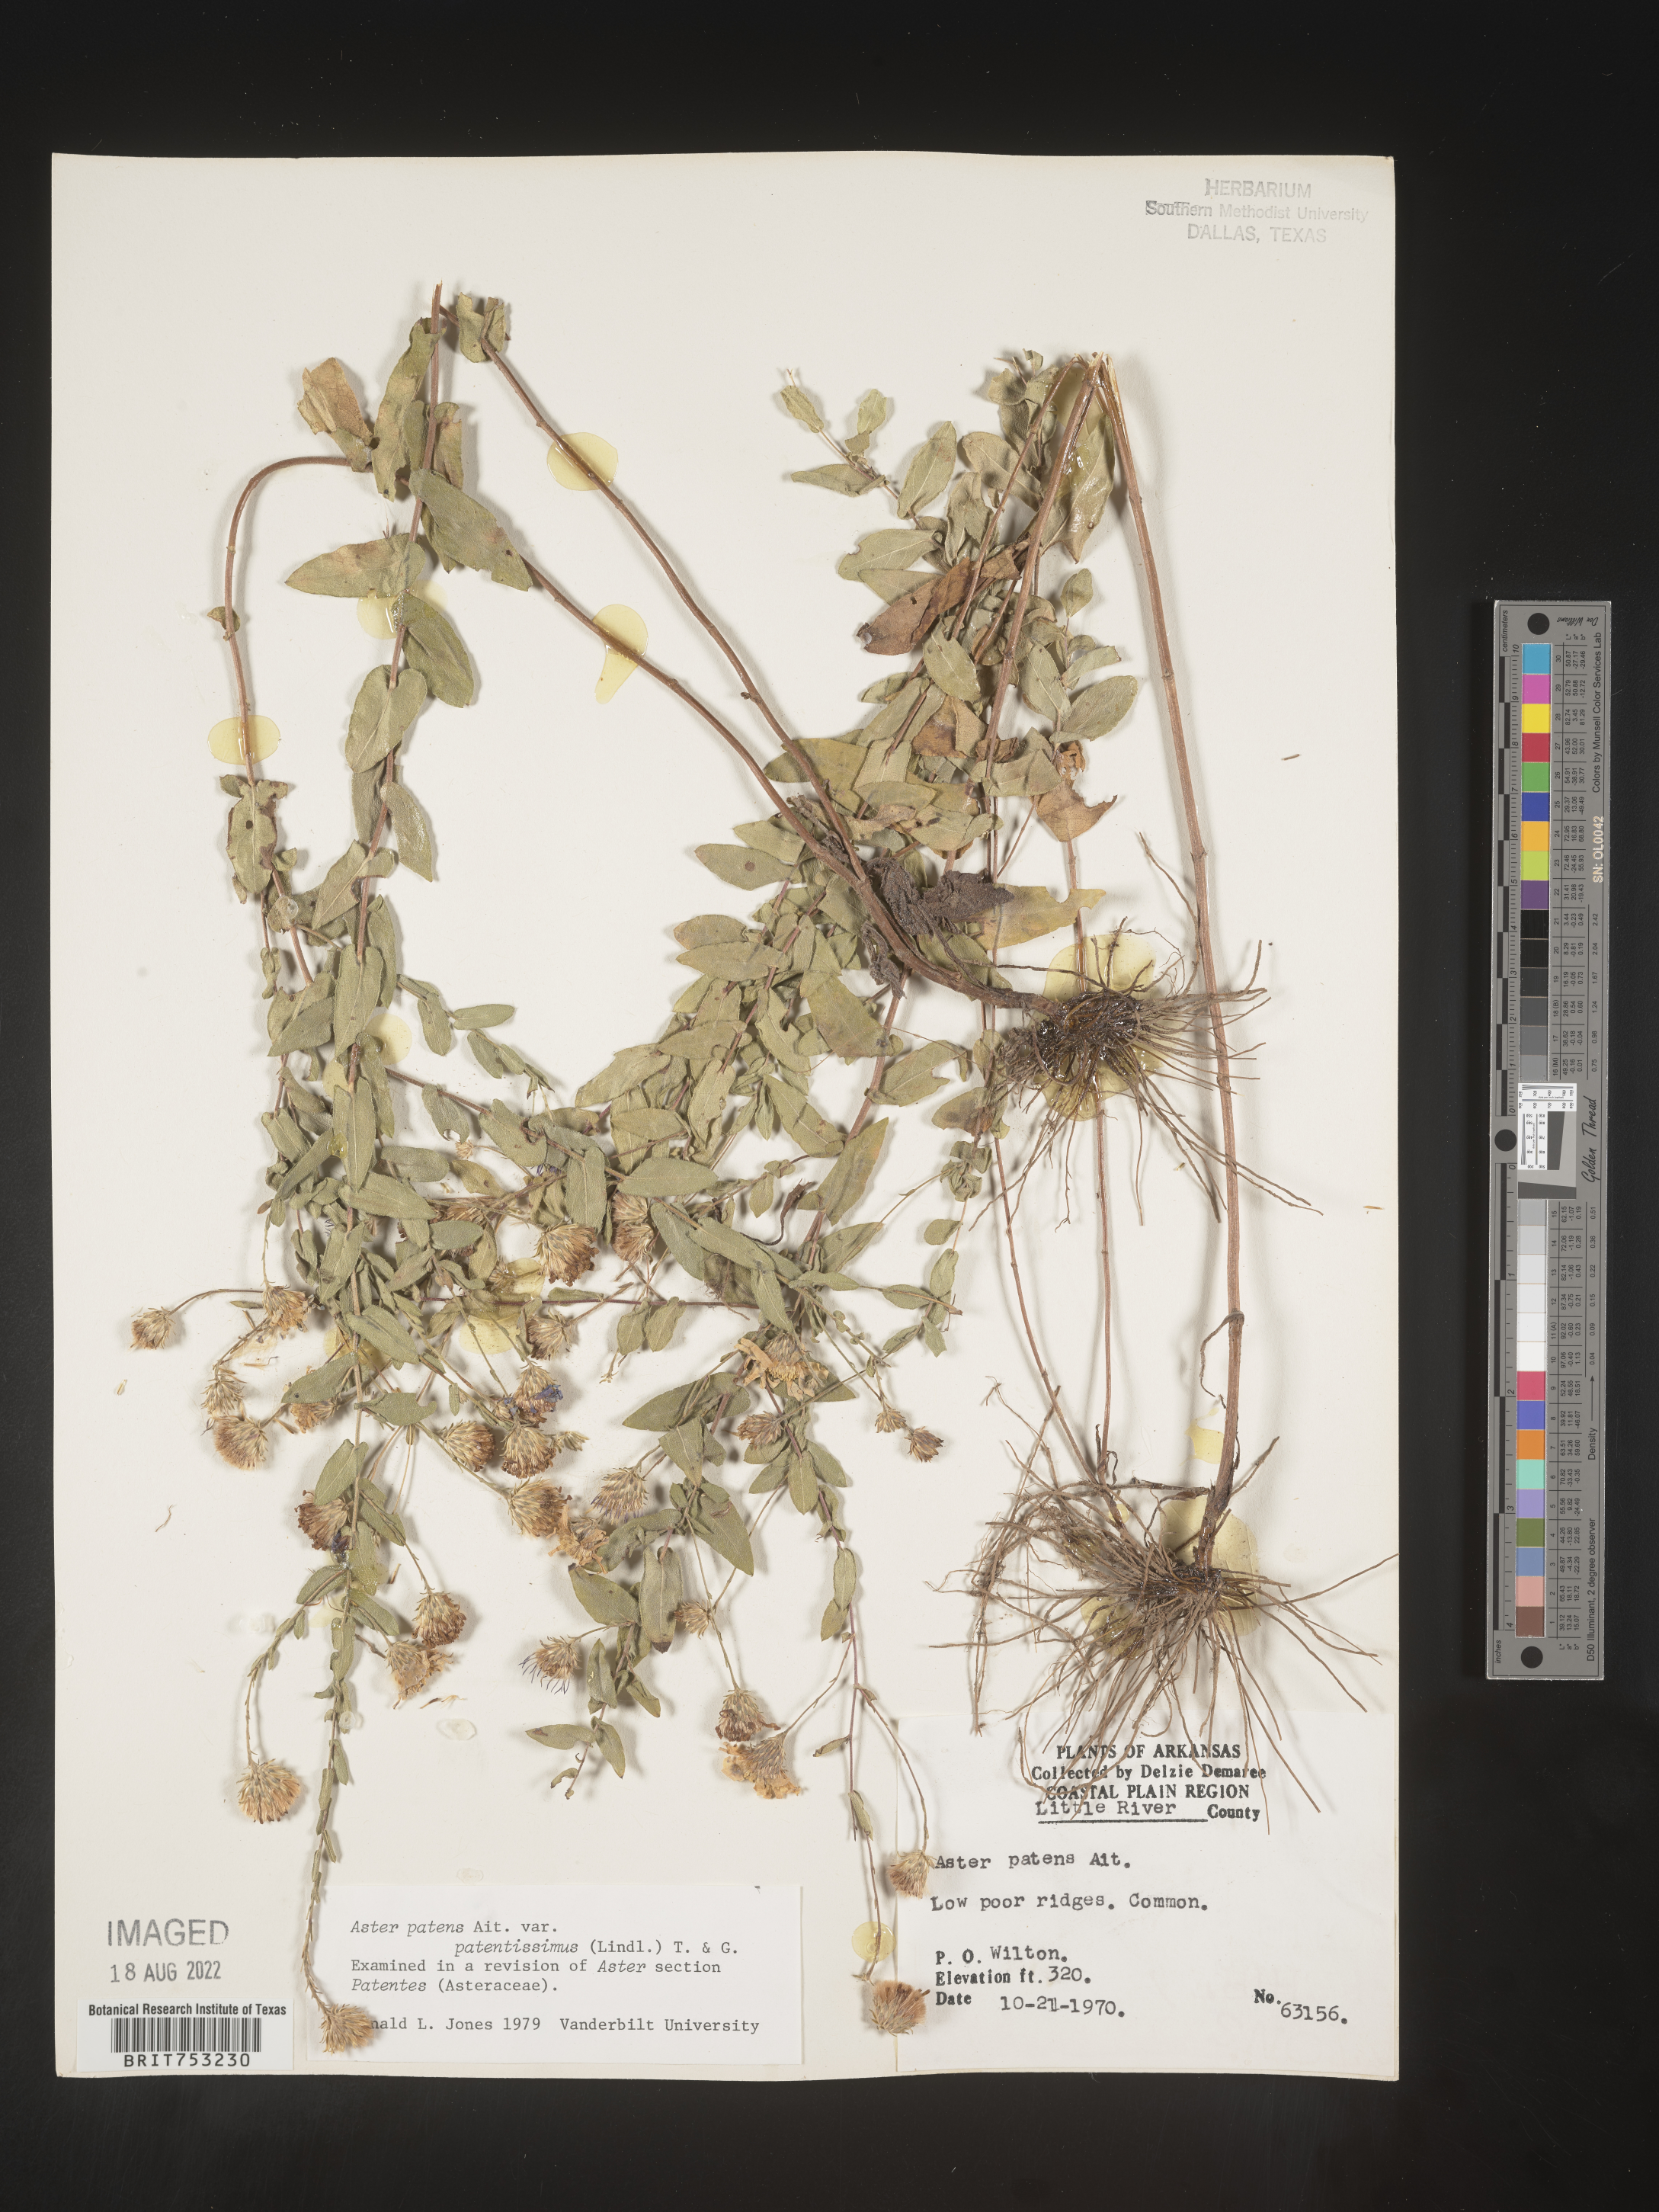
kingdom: Plantae
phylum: Tracheophyta
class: Magnoliopsida
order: Asterales
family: Asteraceae
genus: Symphyotrichum
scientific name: Symphyotrichum patens
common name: Late purple aster
